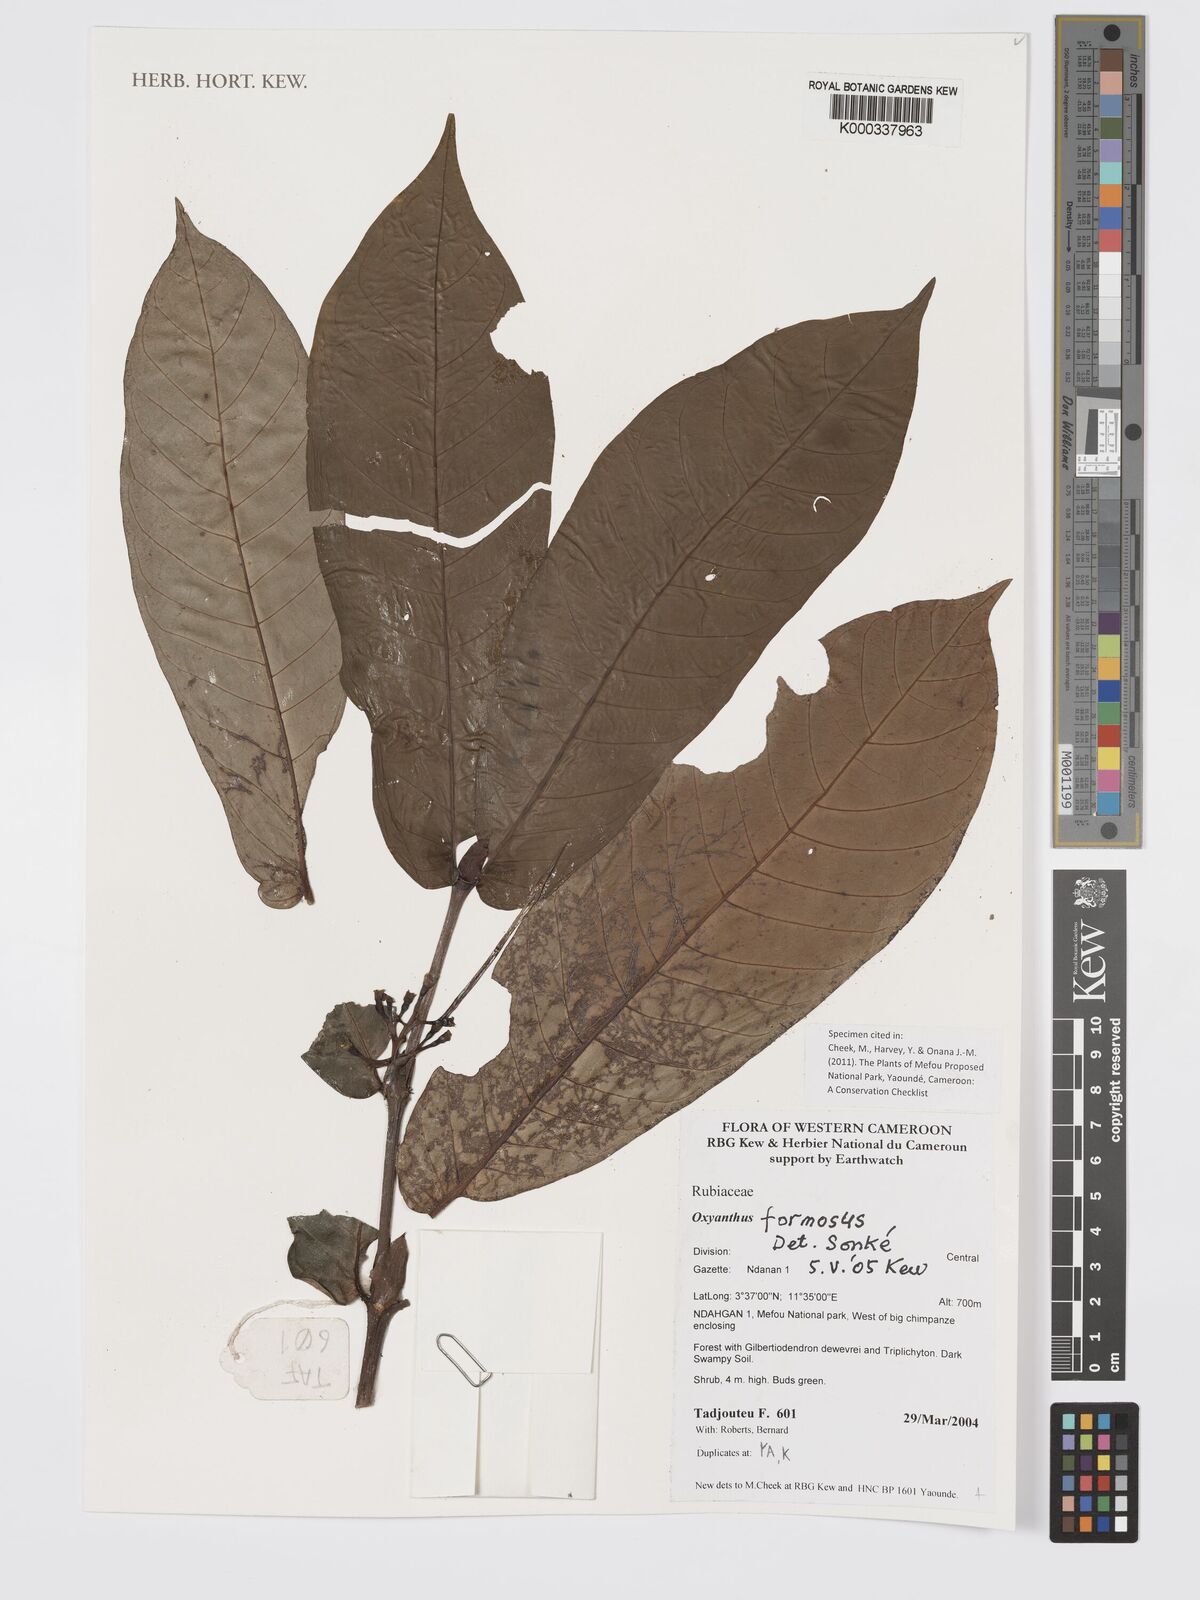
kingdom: Plantae
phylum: Tracheophyta
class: Magnoliopsida
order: Gentianales
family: Rubiaceae
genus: Oxyanthus
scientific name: Oxyanthus
